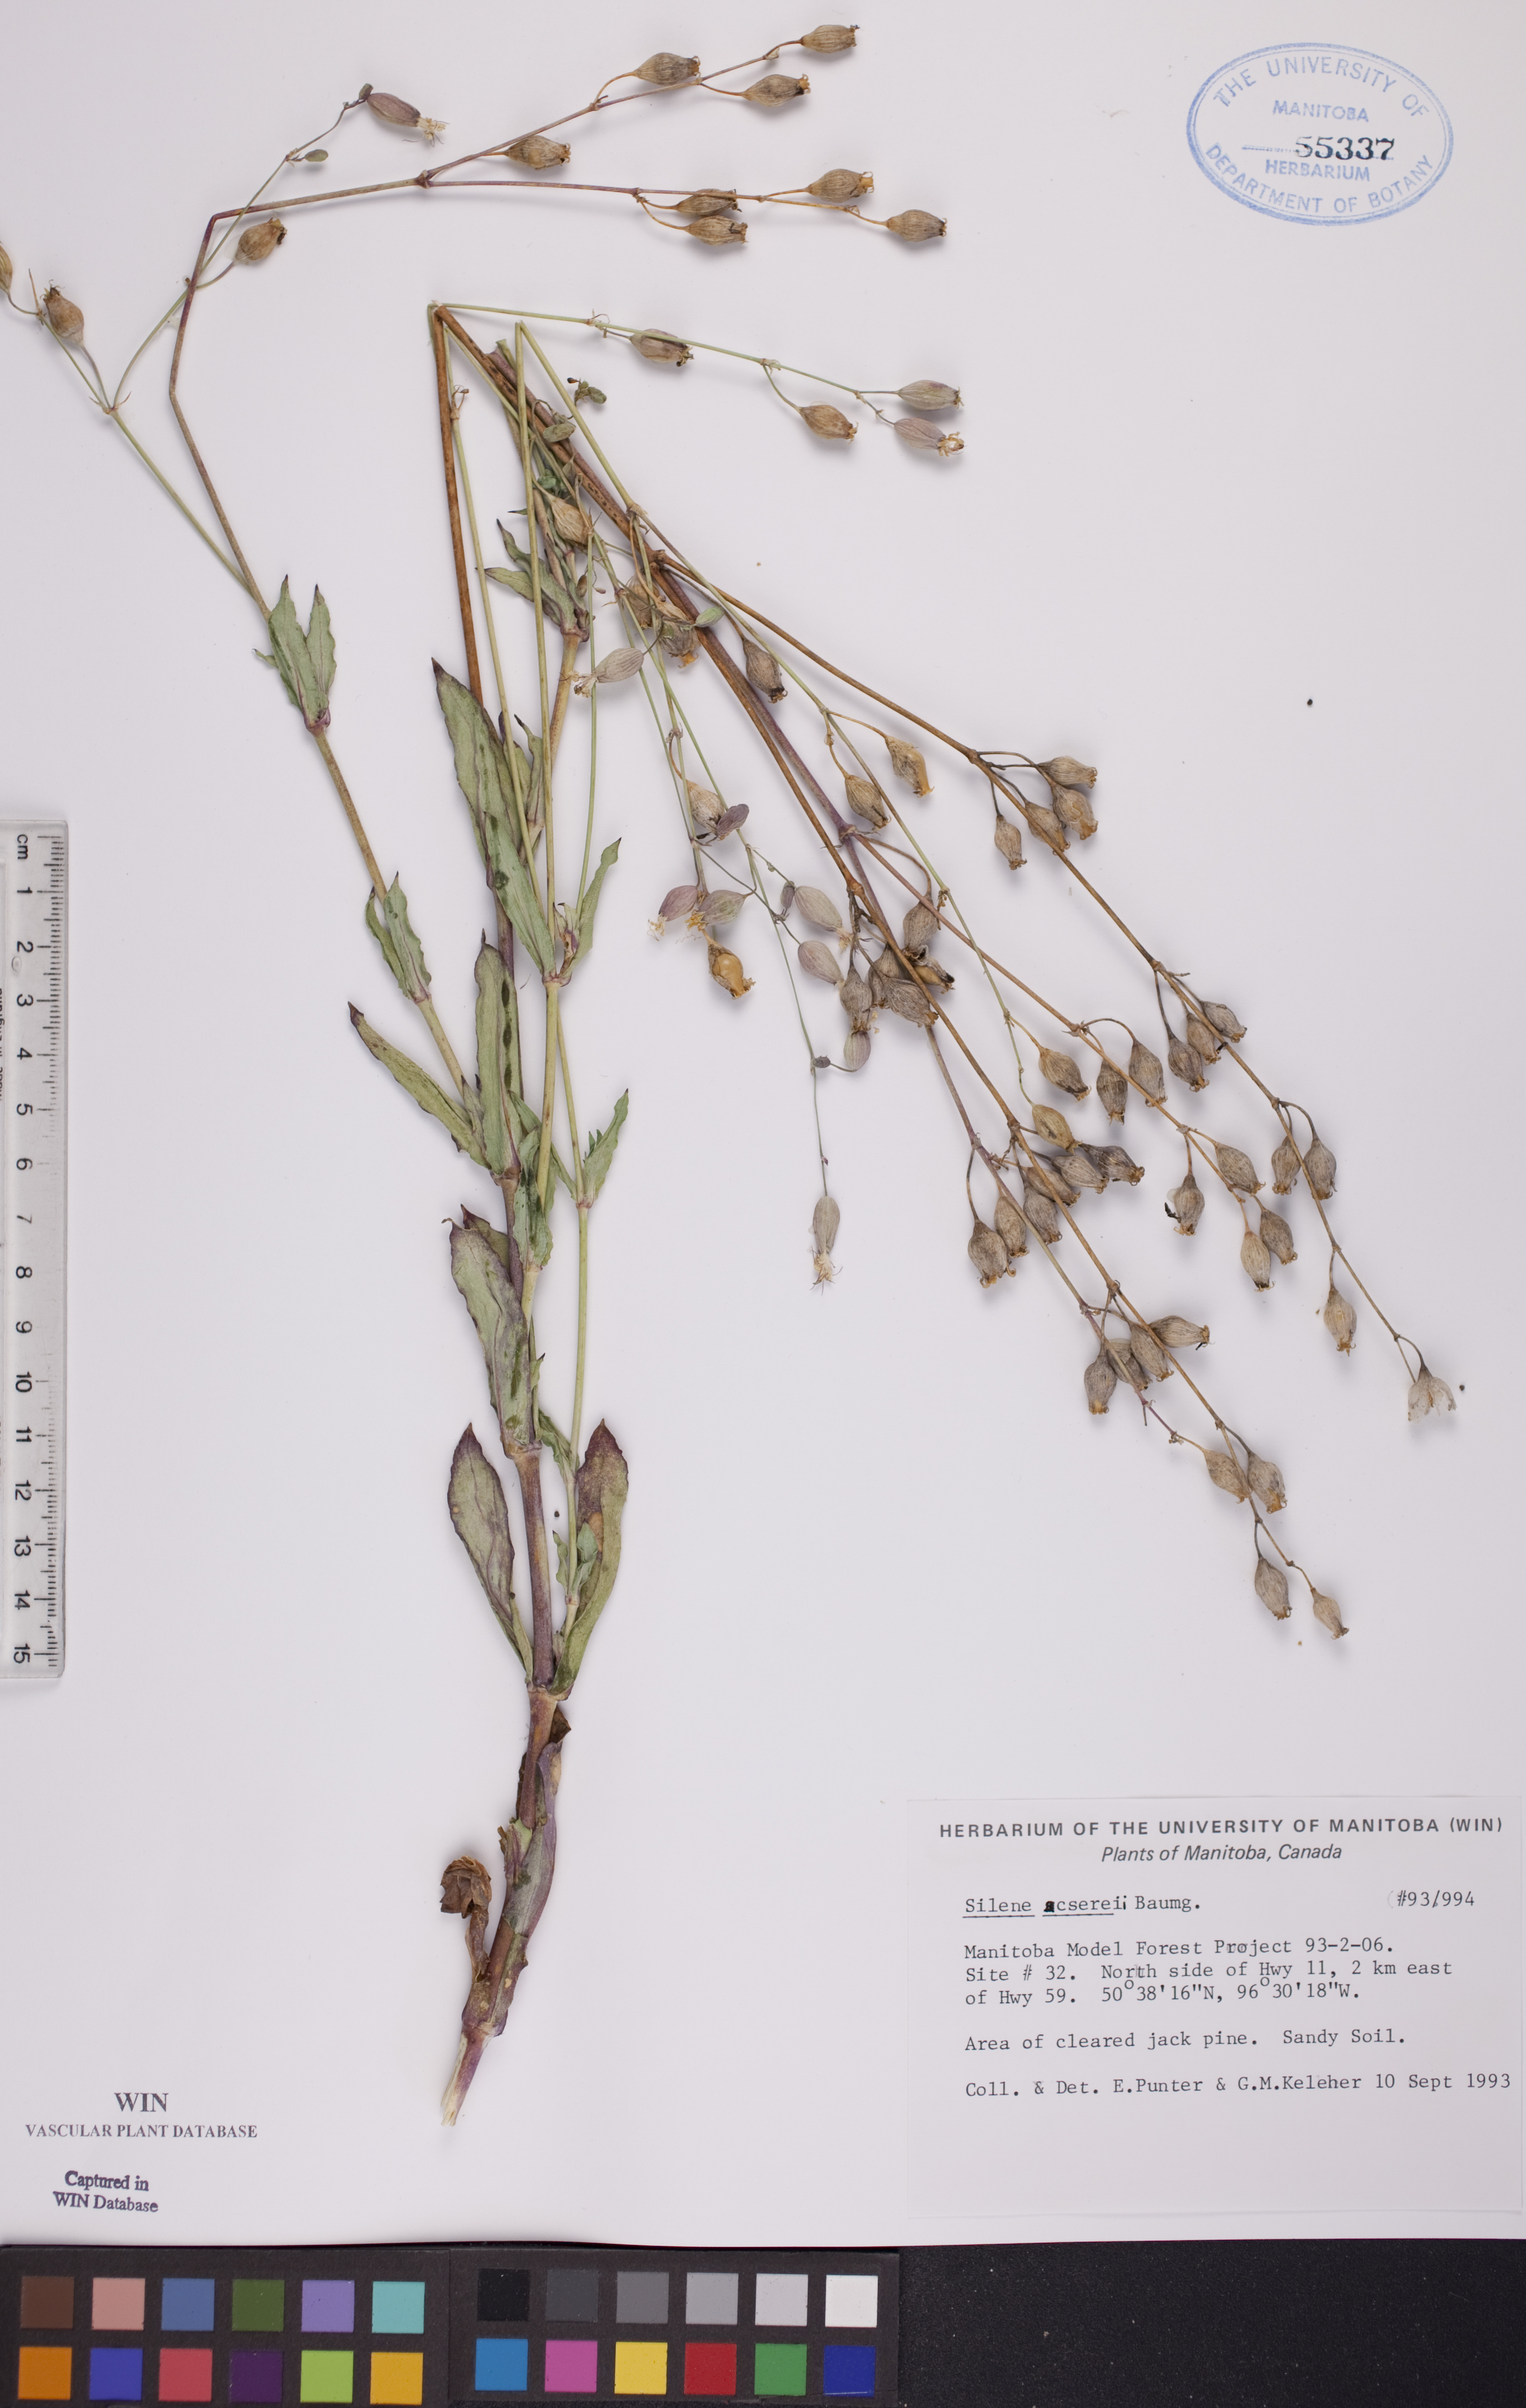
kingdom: Plantae
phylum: Tracheophyta
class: Magnoliopsida
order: Caryophyllales
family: Caryophyllaceae
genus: Silene
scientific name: Silene csereii
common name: Balkan catchfly
